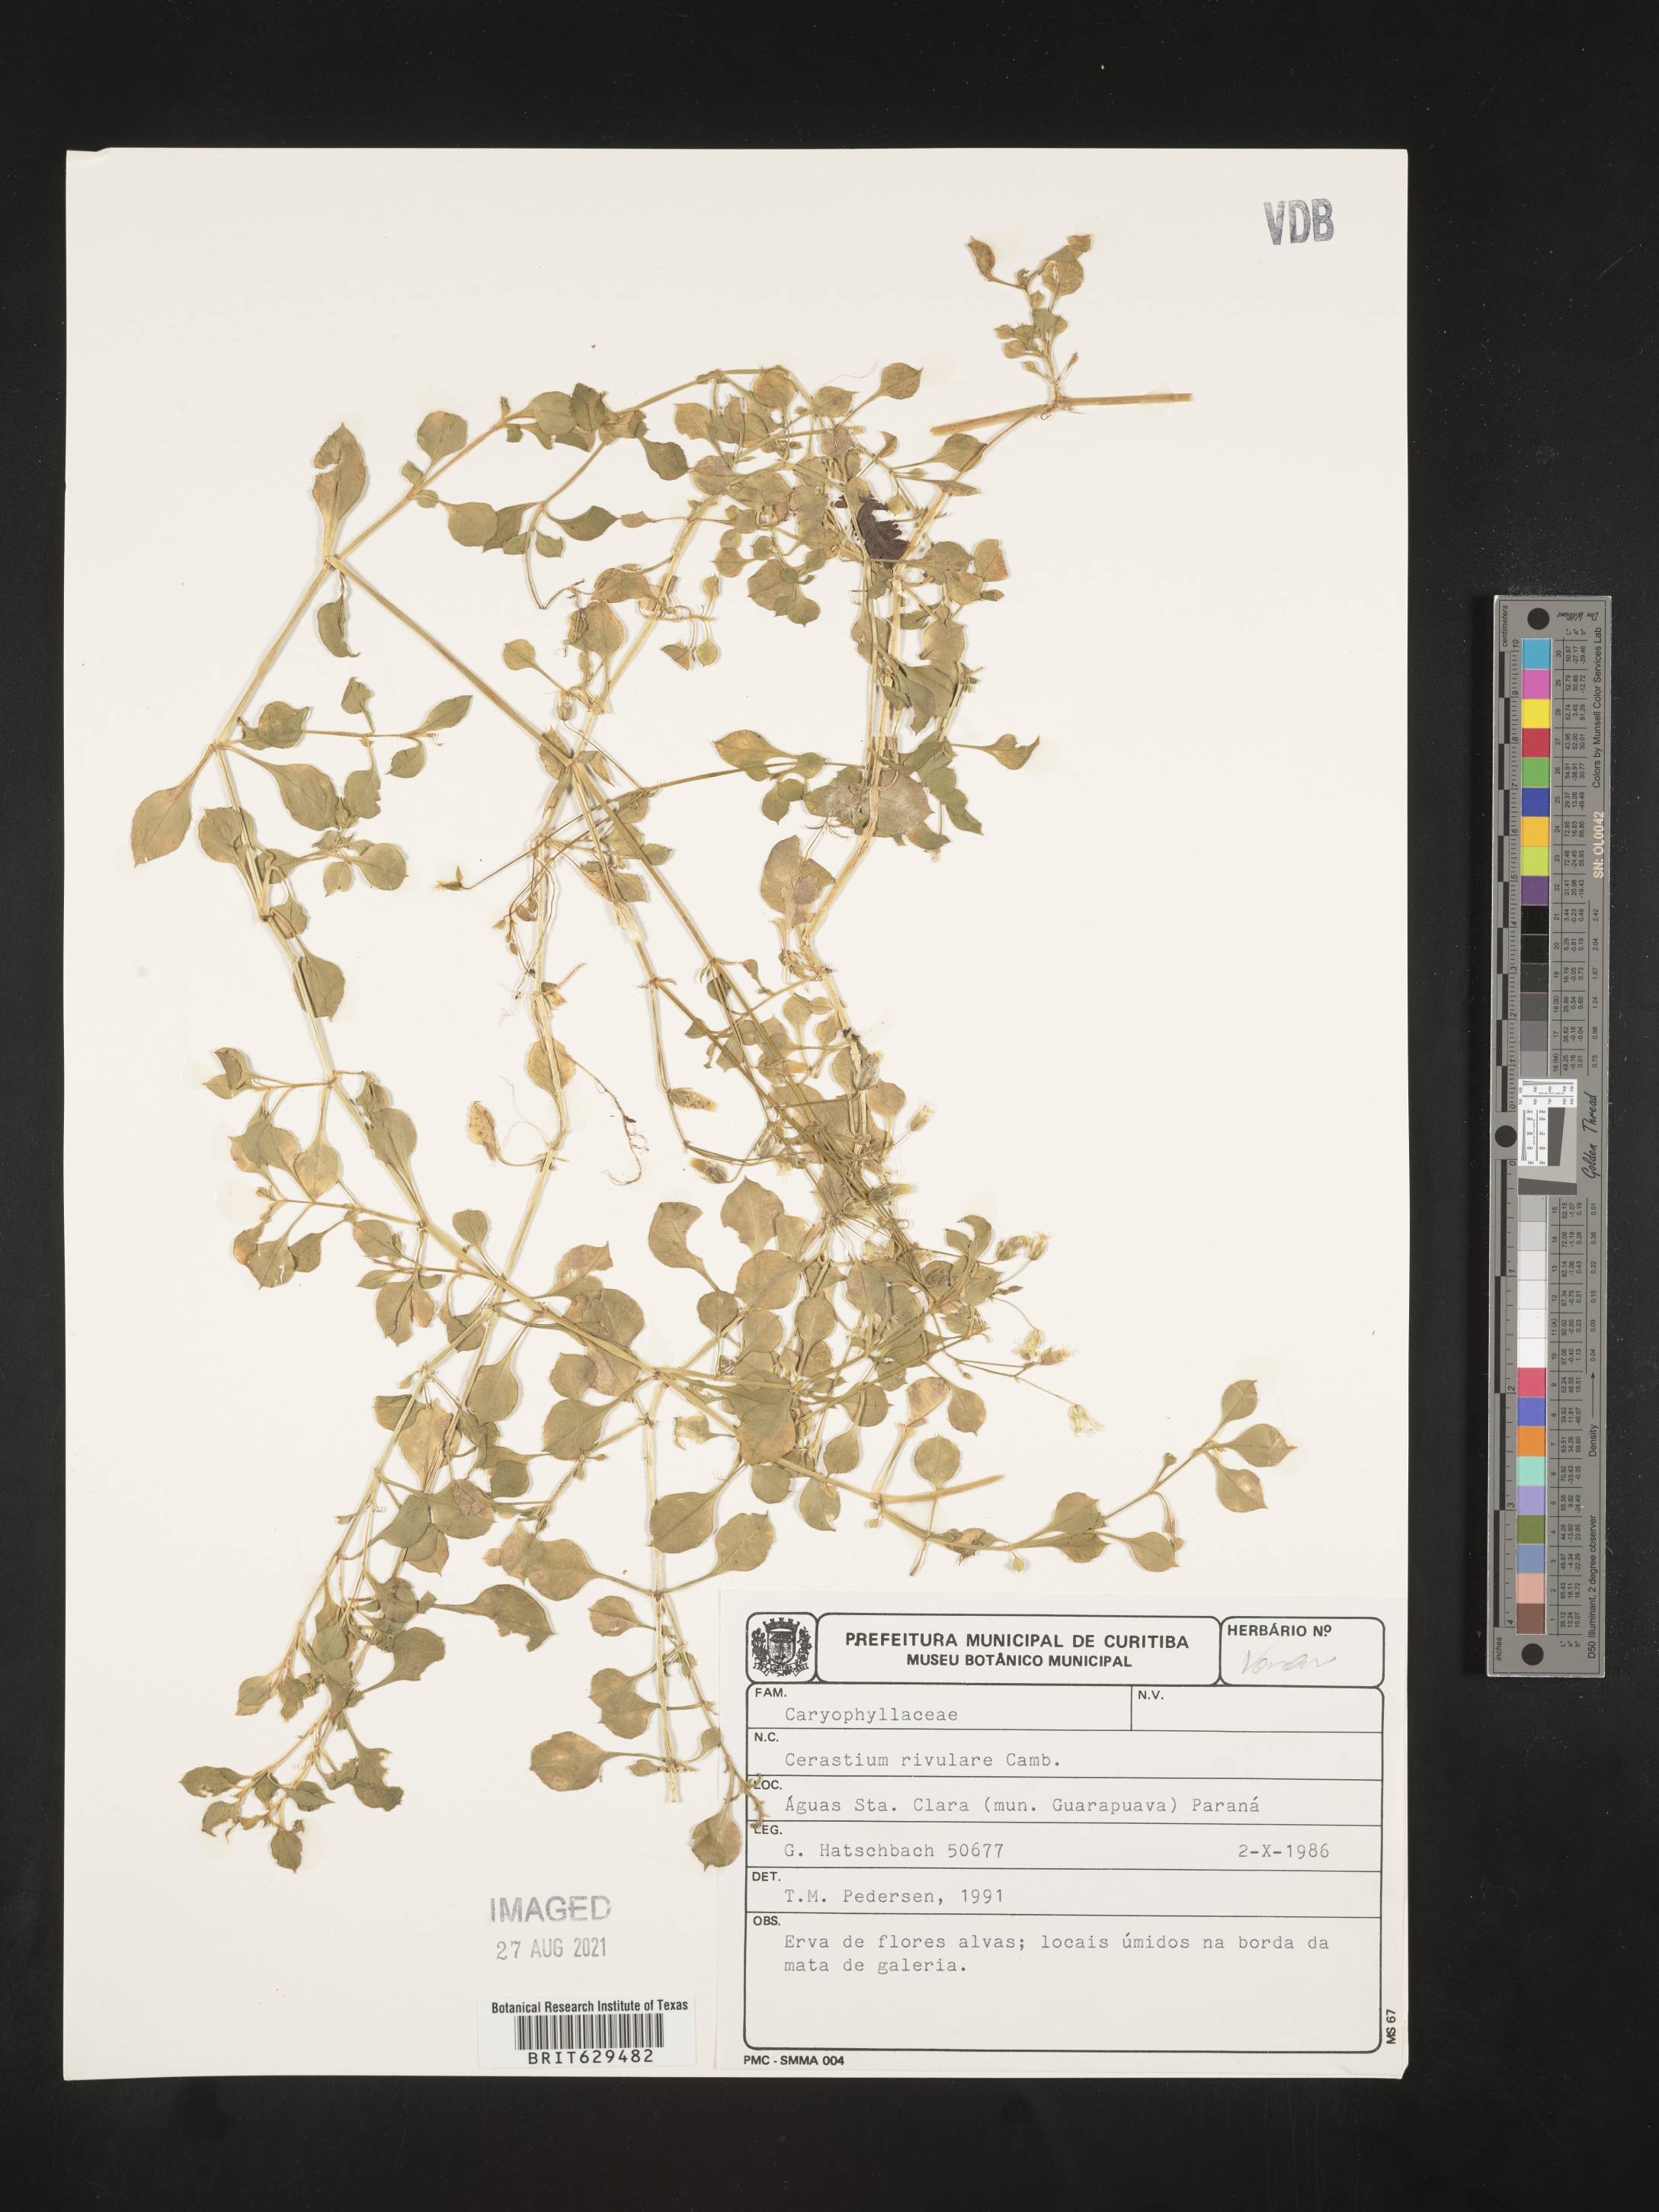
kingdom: Plantae
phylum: Tracheophyta
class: Magnoliopsida
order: Caryophyllales
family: Caryophyllaceae
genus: Cerastium
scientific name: Cerastium rivulare
